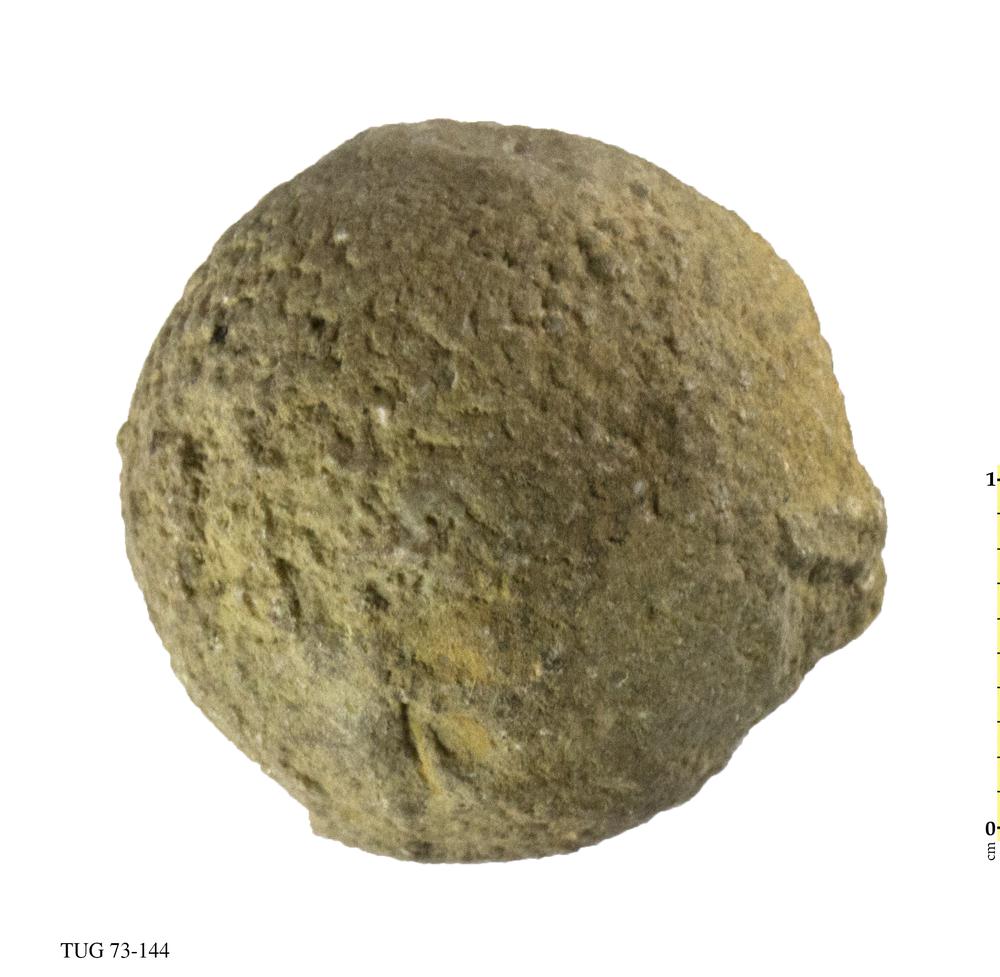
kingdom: Plantae
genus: Cyclorinus
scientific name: Cyclorinus Cyclocrinites spaskii
